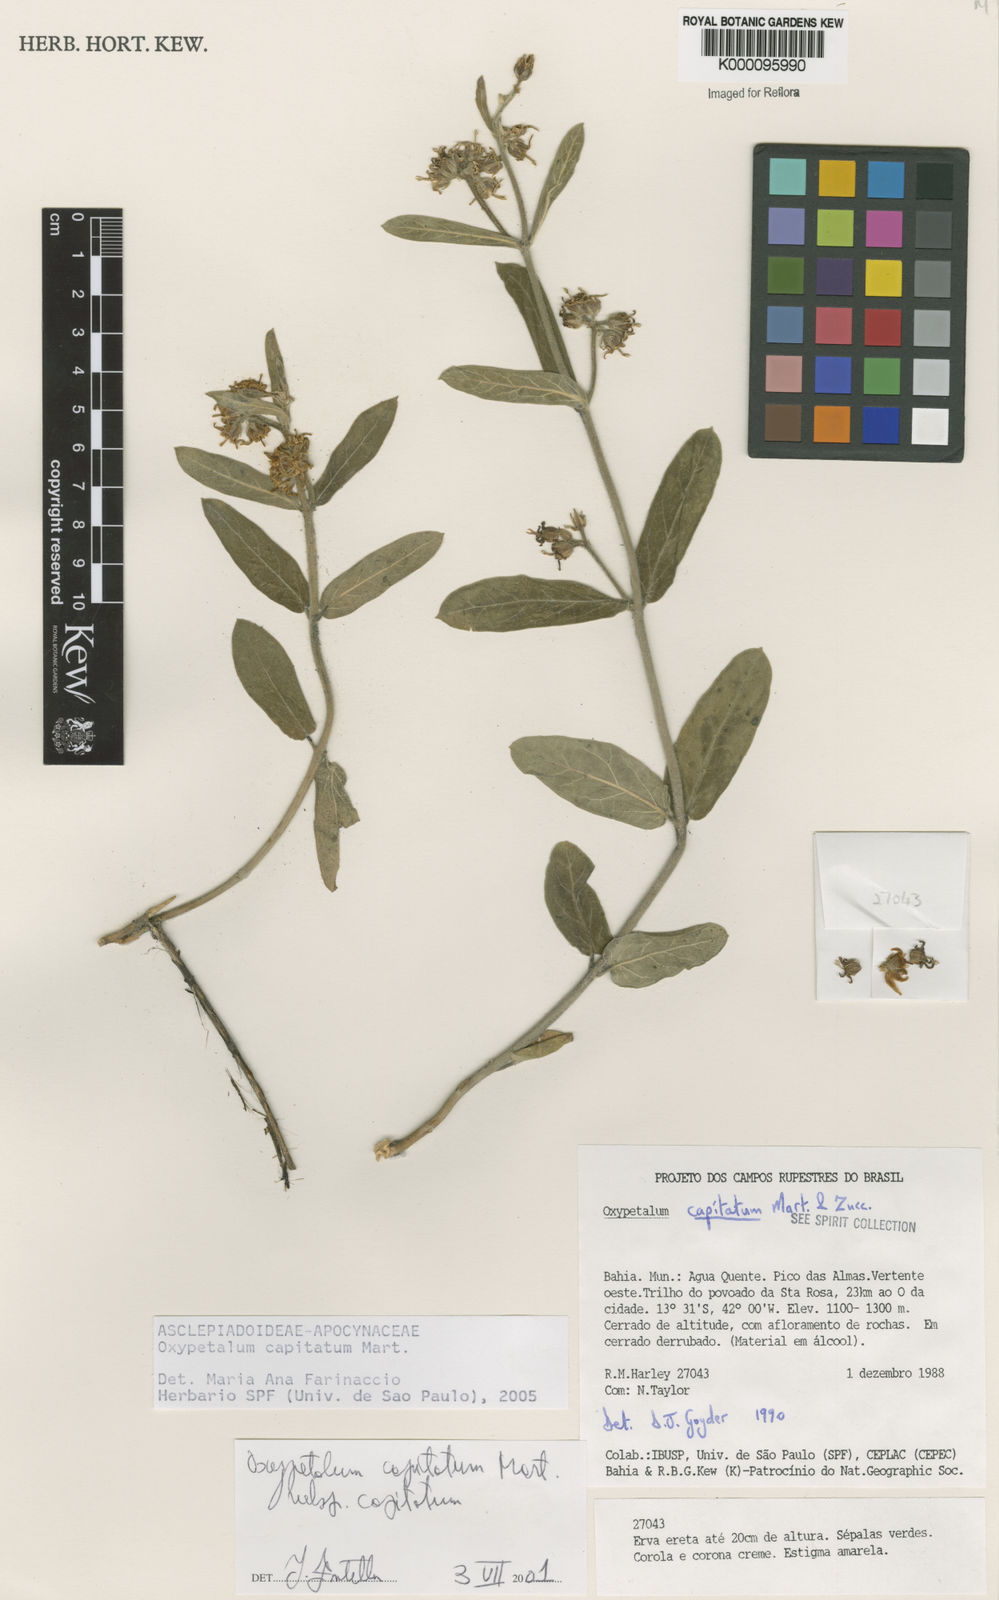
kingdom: Plantae
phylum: Tracheophyta
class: Magnoliopsida
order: Gentianales
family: Apocynaceae
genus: Oxypetalum
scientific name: Oxypetalum capitatum
